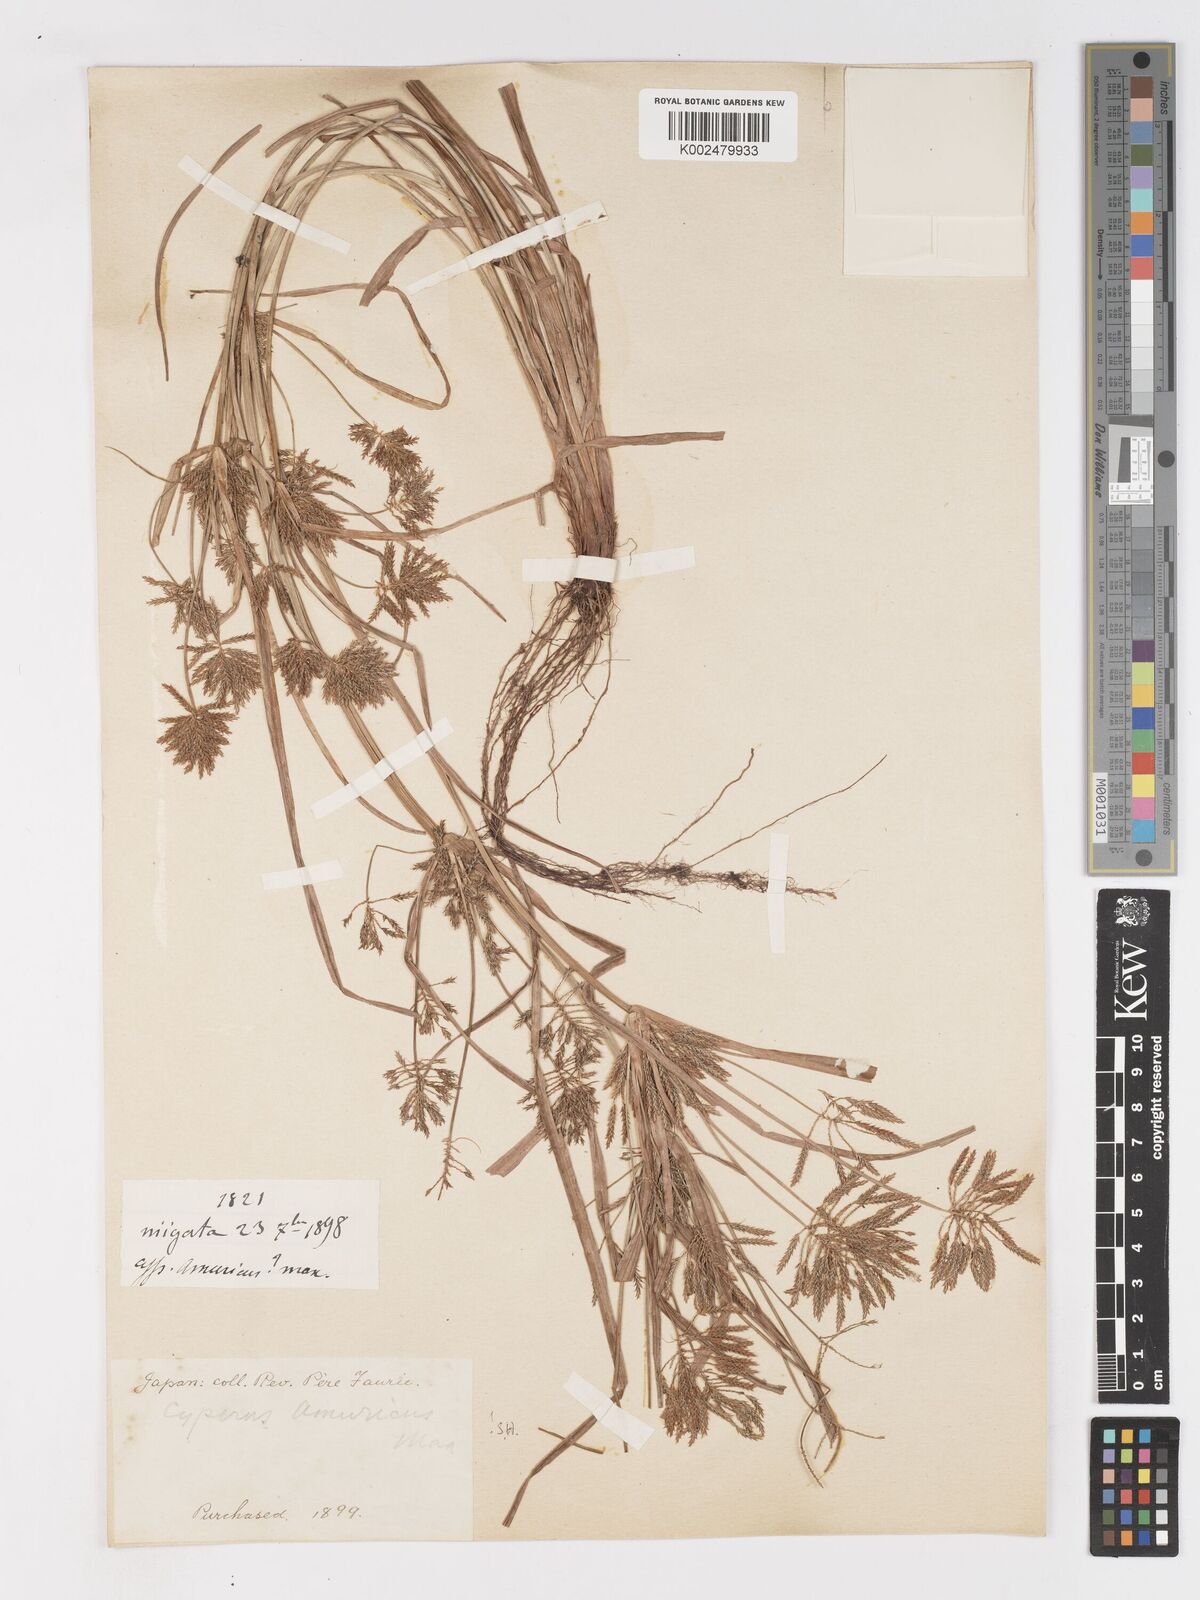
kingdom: Plantae
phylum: Tracheophyta
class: Liliopsida
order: Poales
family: Cyperaceae
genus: Cyperus
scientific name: Cyperus amuricus
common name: Asian flatsedge
